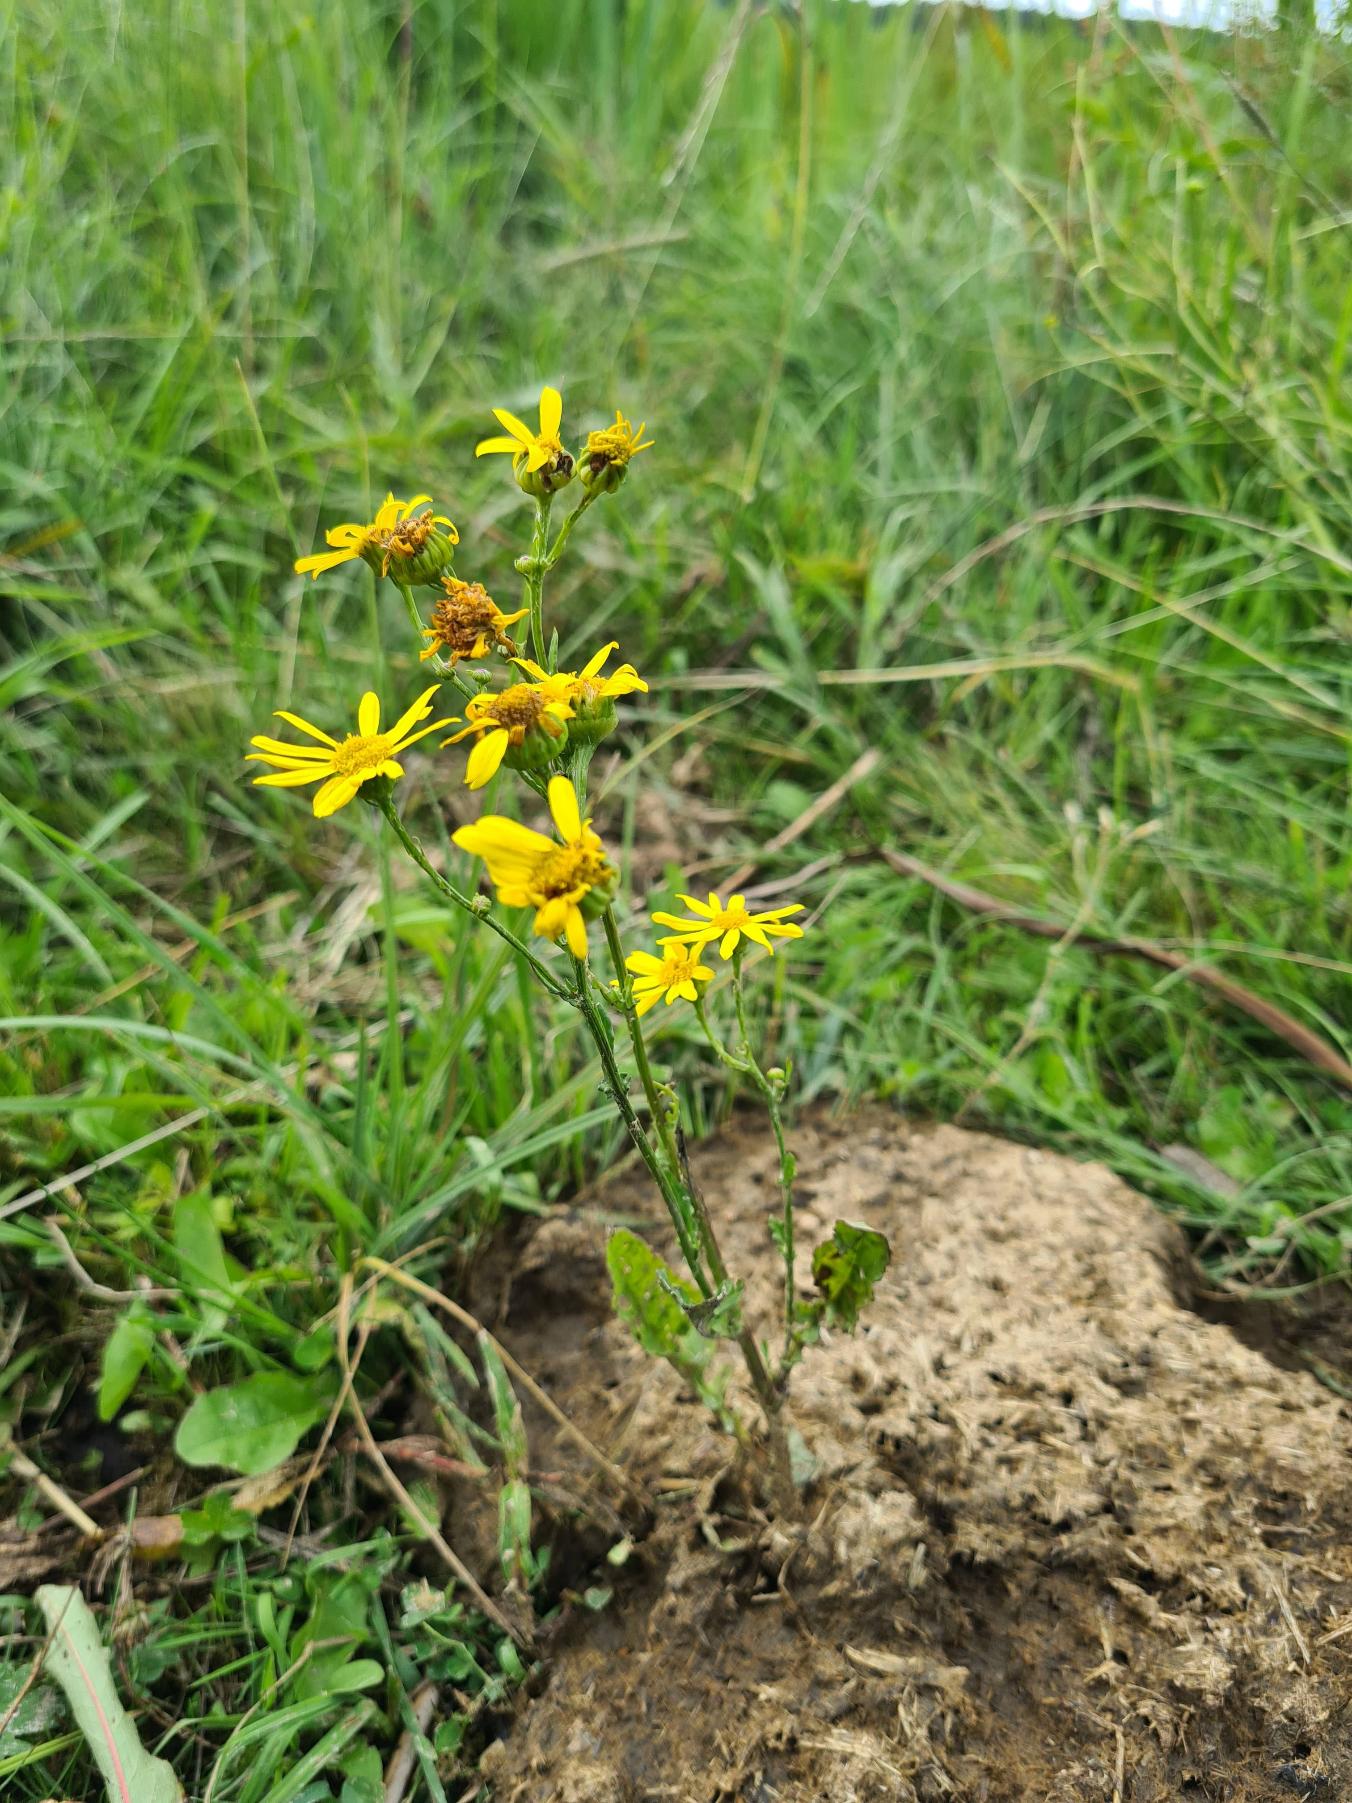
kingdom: Plantae
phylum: Tracheophyta
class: Magnoliopsida
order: Asterales
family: Asteraceae
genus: Jacobaea
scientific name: Jacobaea aquatica
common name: Vand-brandbæger
